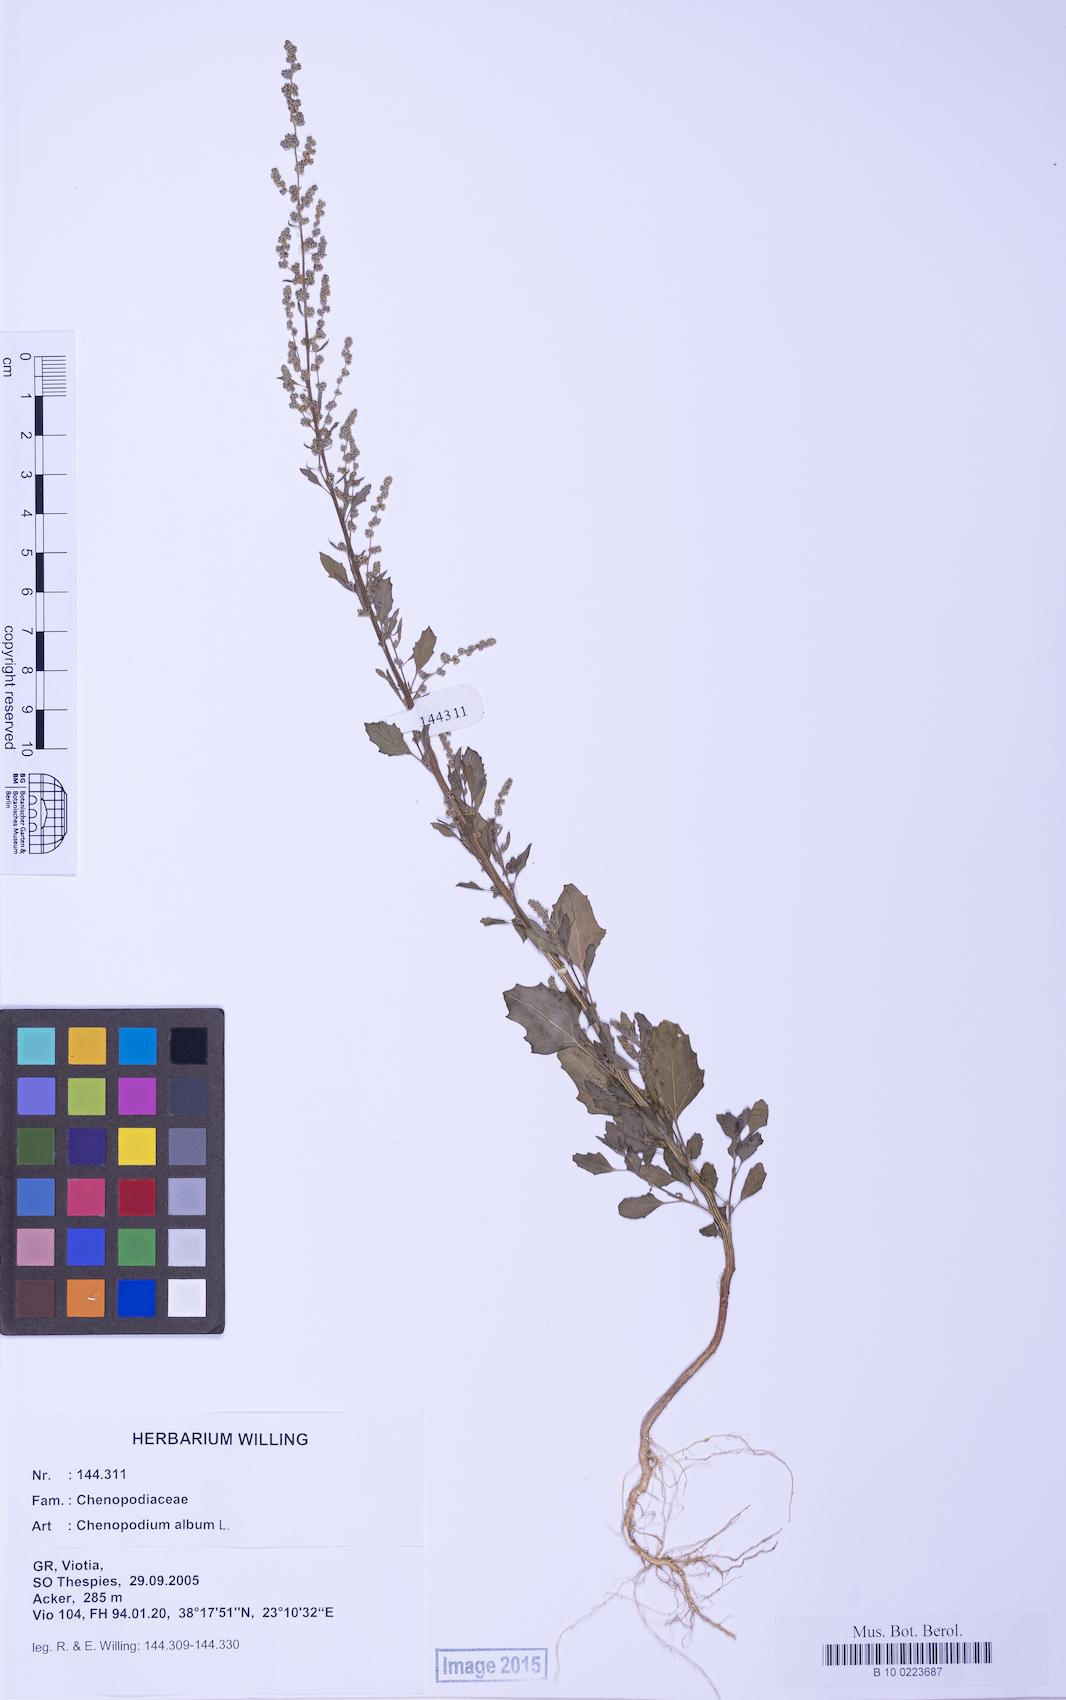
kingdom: Plantae
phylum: Tracheophyta
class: Magnoliopsida
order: Caryophyllales
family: Amaranthaceae
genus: Chenopodium
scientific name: Chenopodium album
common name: Fat-hen
